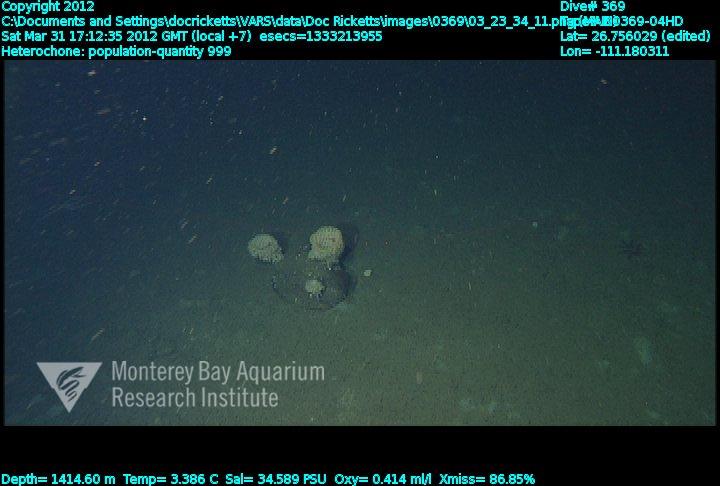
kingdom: Animalia
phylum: Porifera
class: Hexactinellida
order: Sceptrulophora
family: Aphrocallistidae
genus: Heterochone
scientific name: Heterochone
